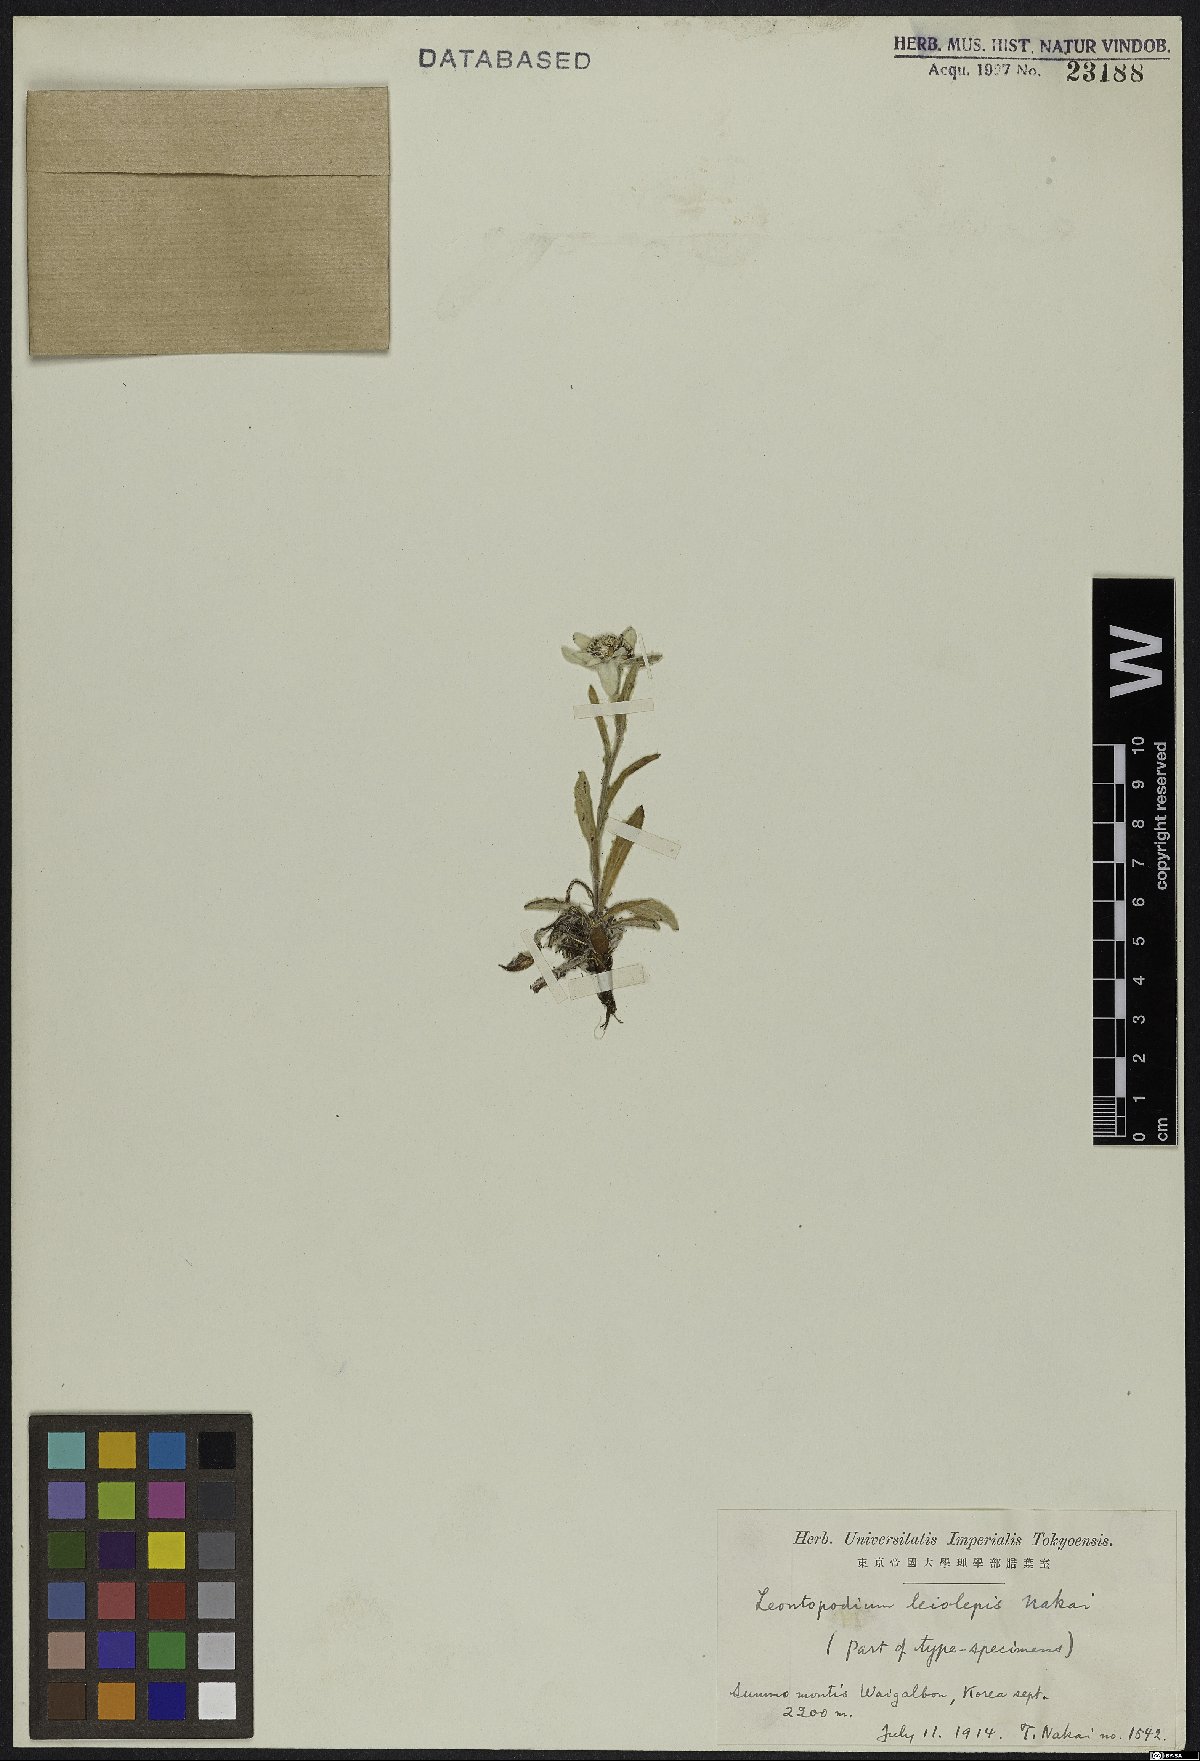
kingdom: Plantae
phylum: Tracheophyta
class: Magnoliopsida
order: Asterales
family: Asteraceae
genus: Leontopodium
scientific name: Leontopodium coreanum
